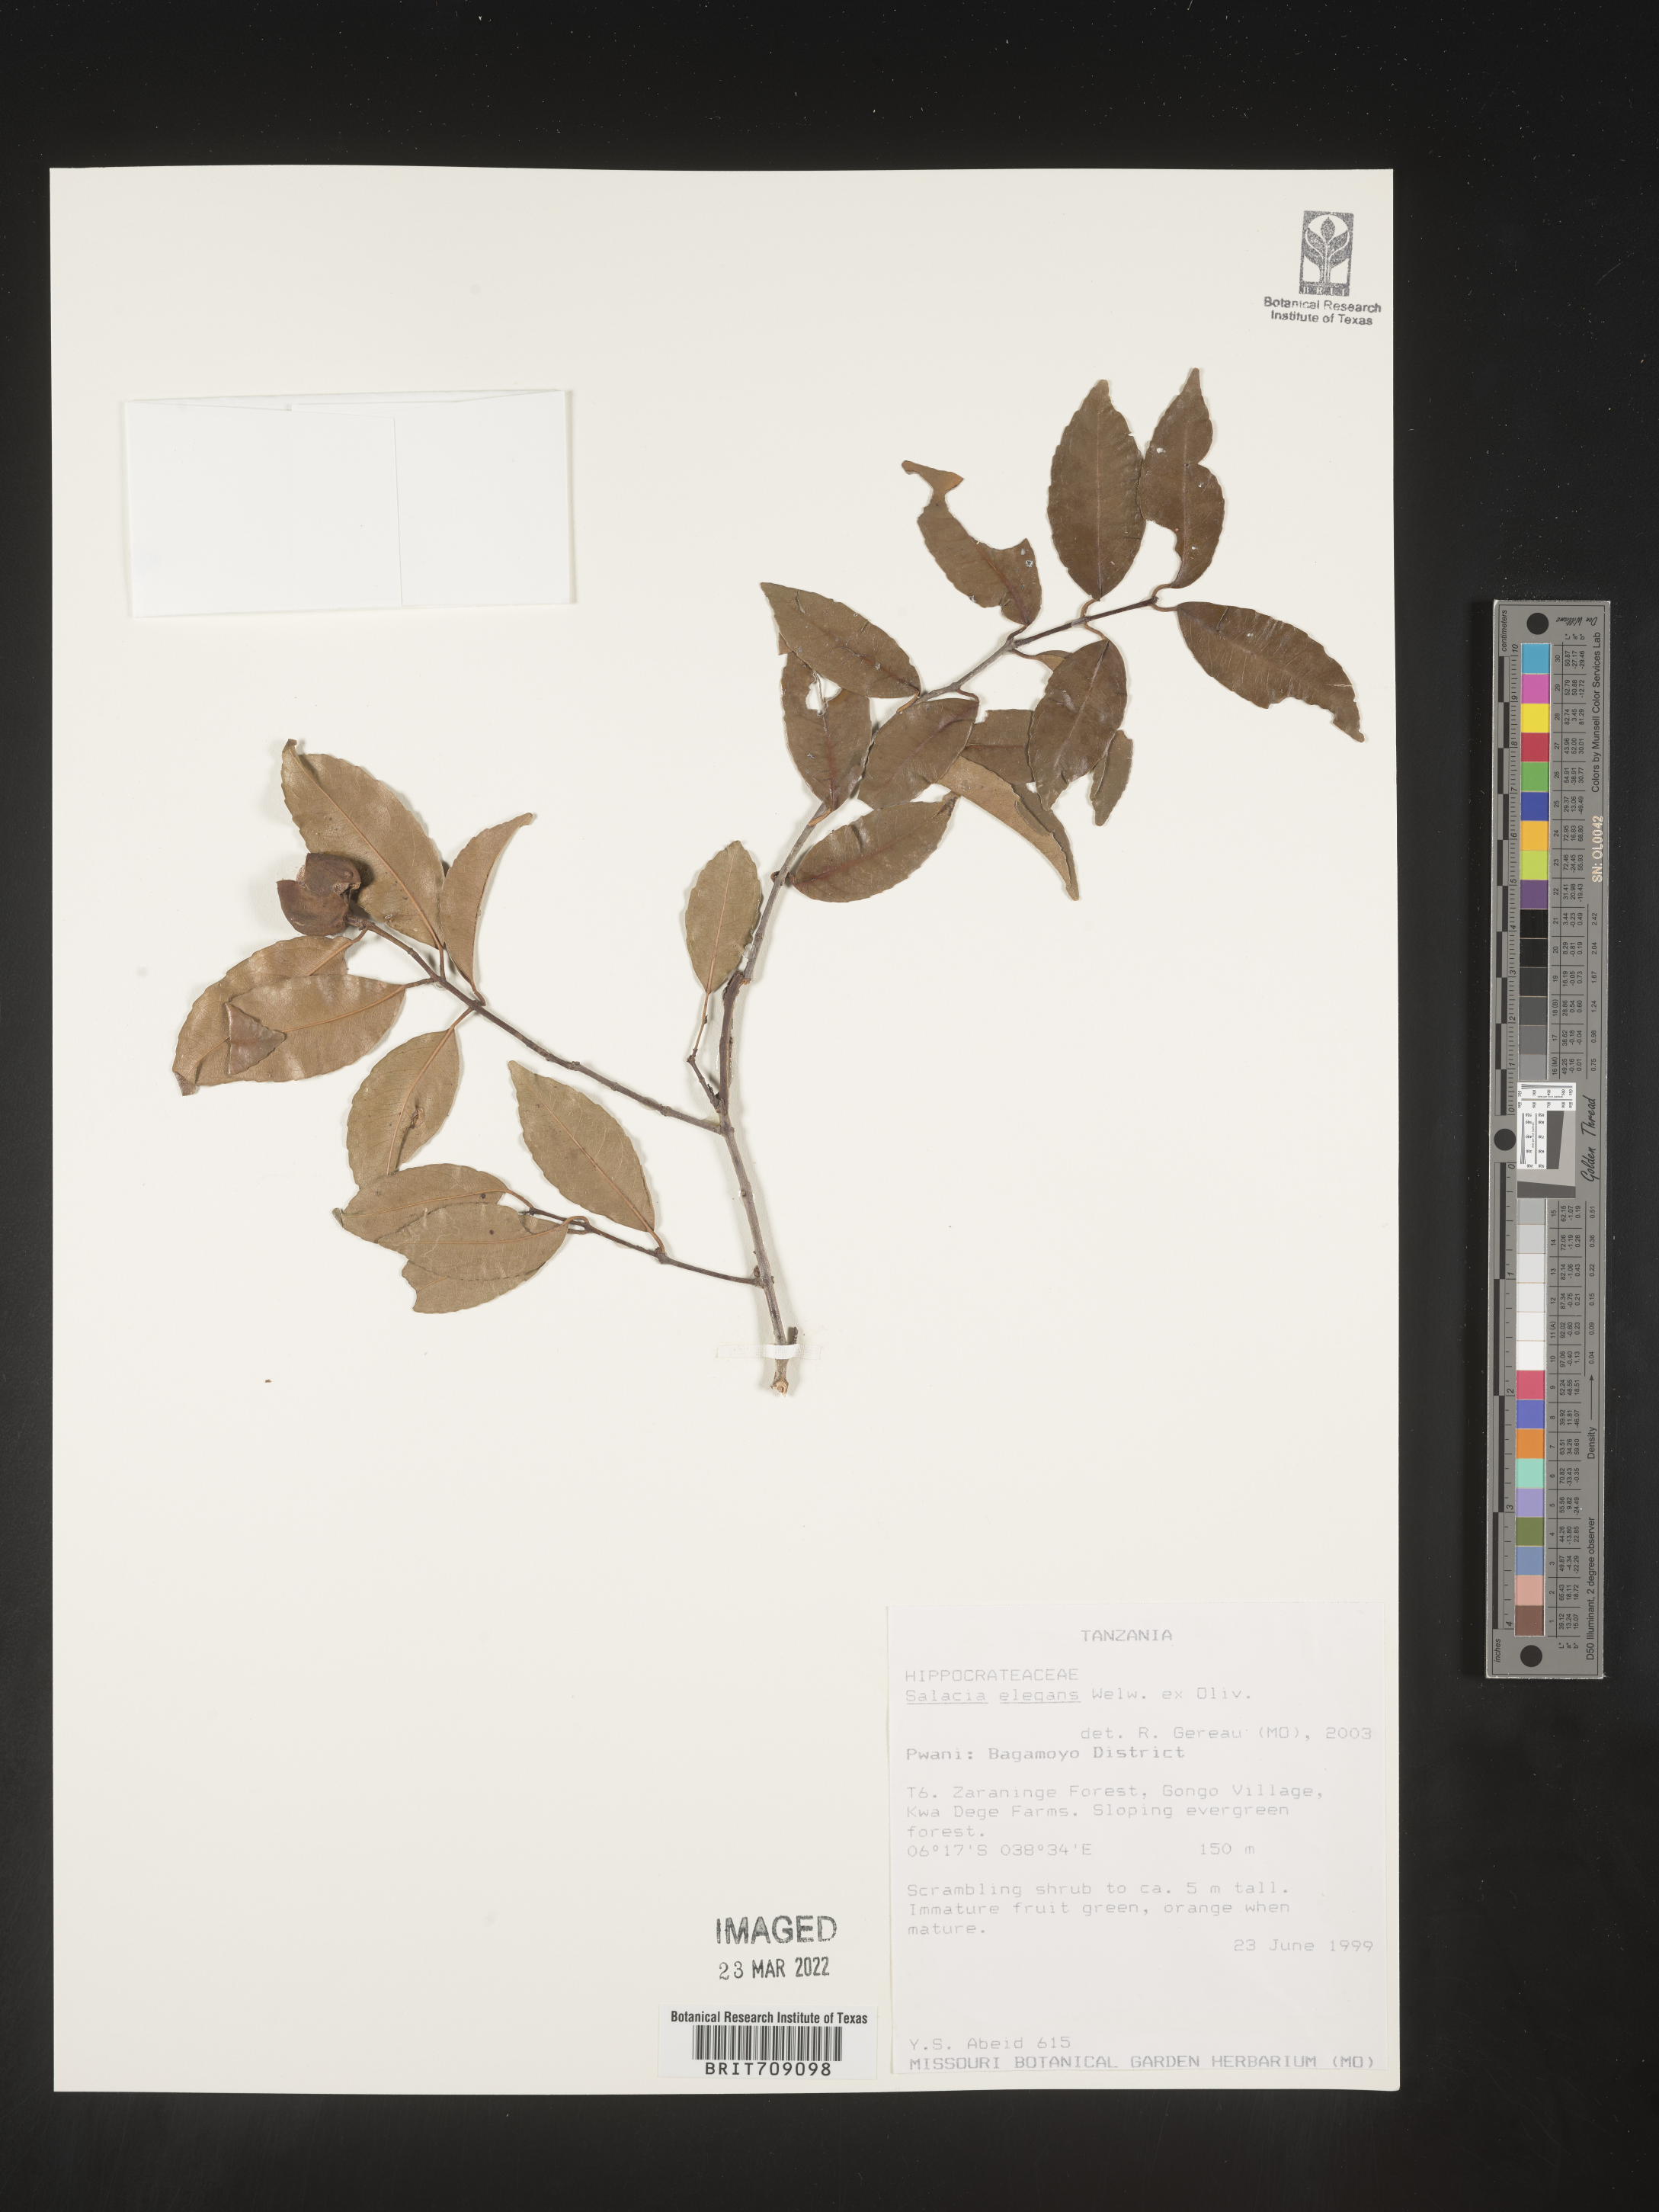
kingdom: Plantae
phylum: Tracheophyta
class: Magnoliopsida
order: Celastrales
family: Celastraceae
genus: Salacia
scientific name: Salacia
